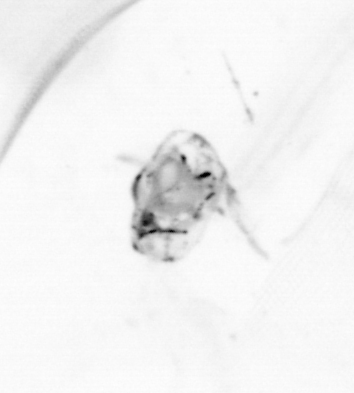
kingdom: Animalia
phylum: Chaetognatha
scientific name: Chaetognatha
